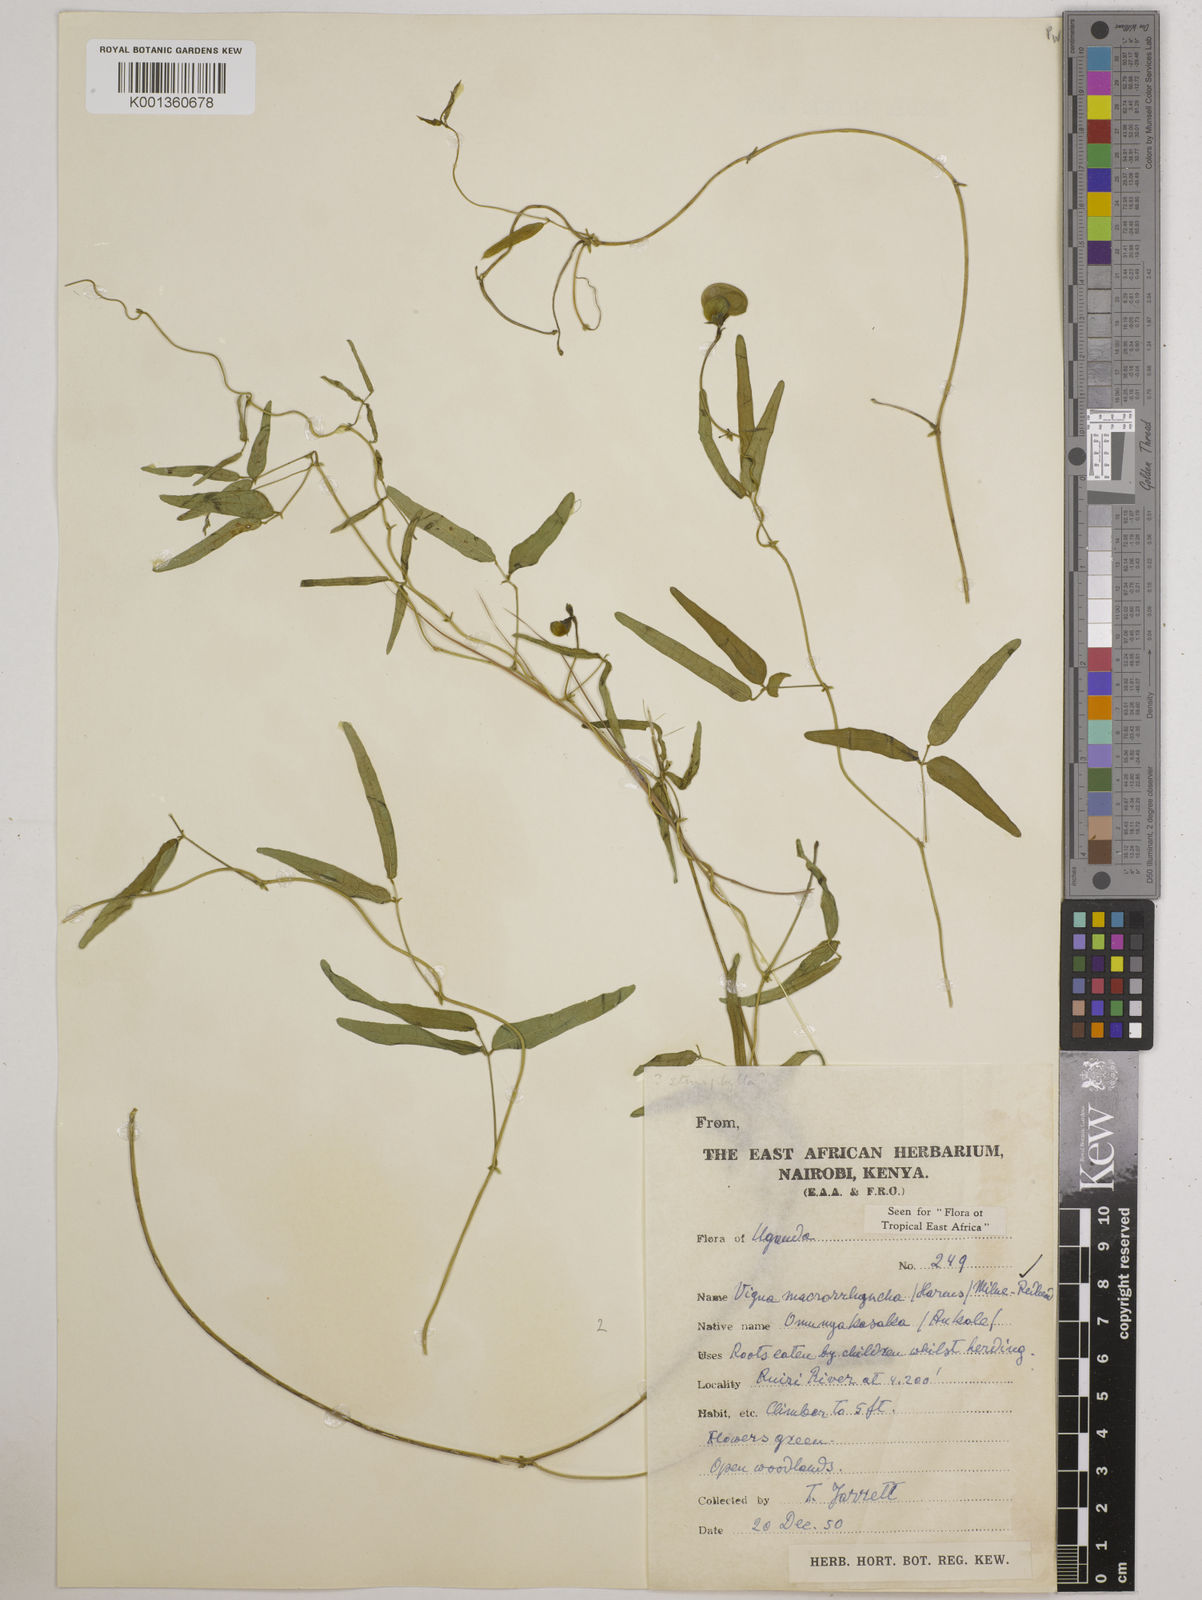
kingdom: Plantae
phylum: Tracheophyta
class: Magnoliopsida
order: Fabales
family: Fabaceae
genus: Wajira
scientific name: Wajira grahamiana
